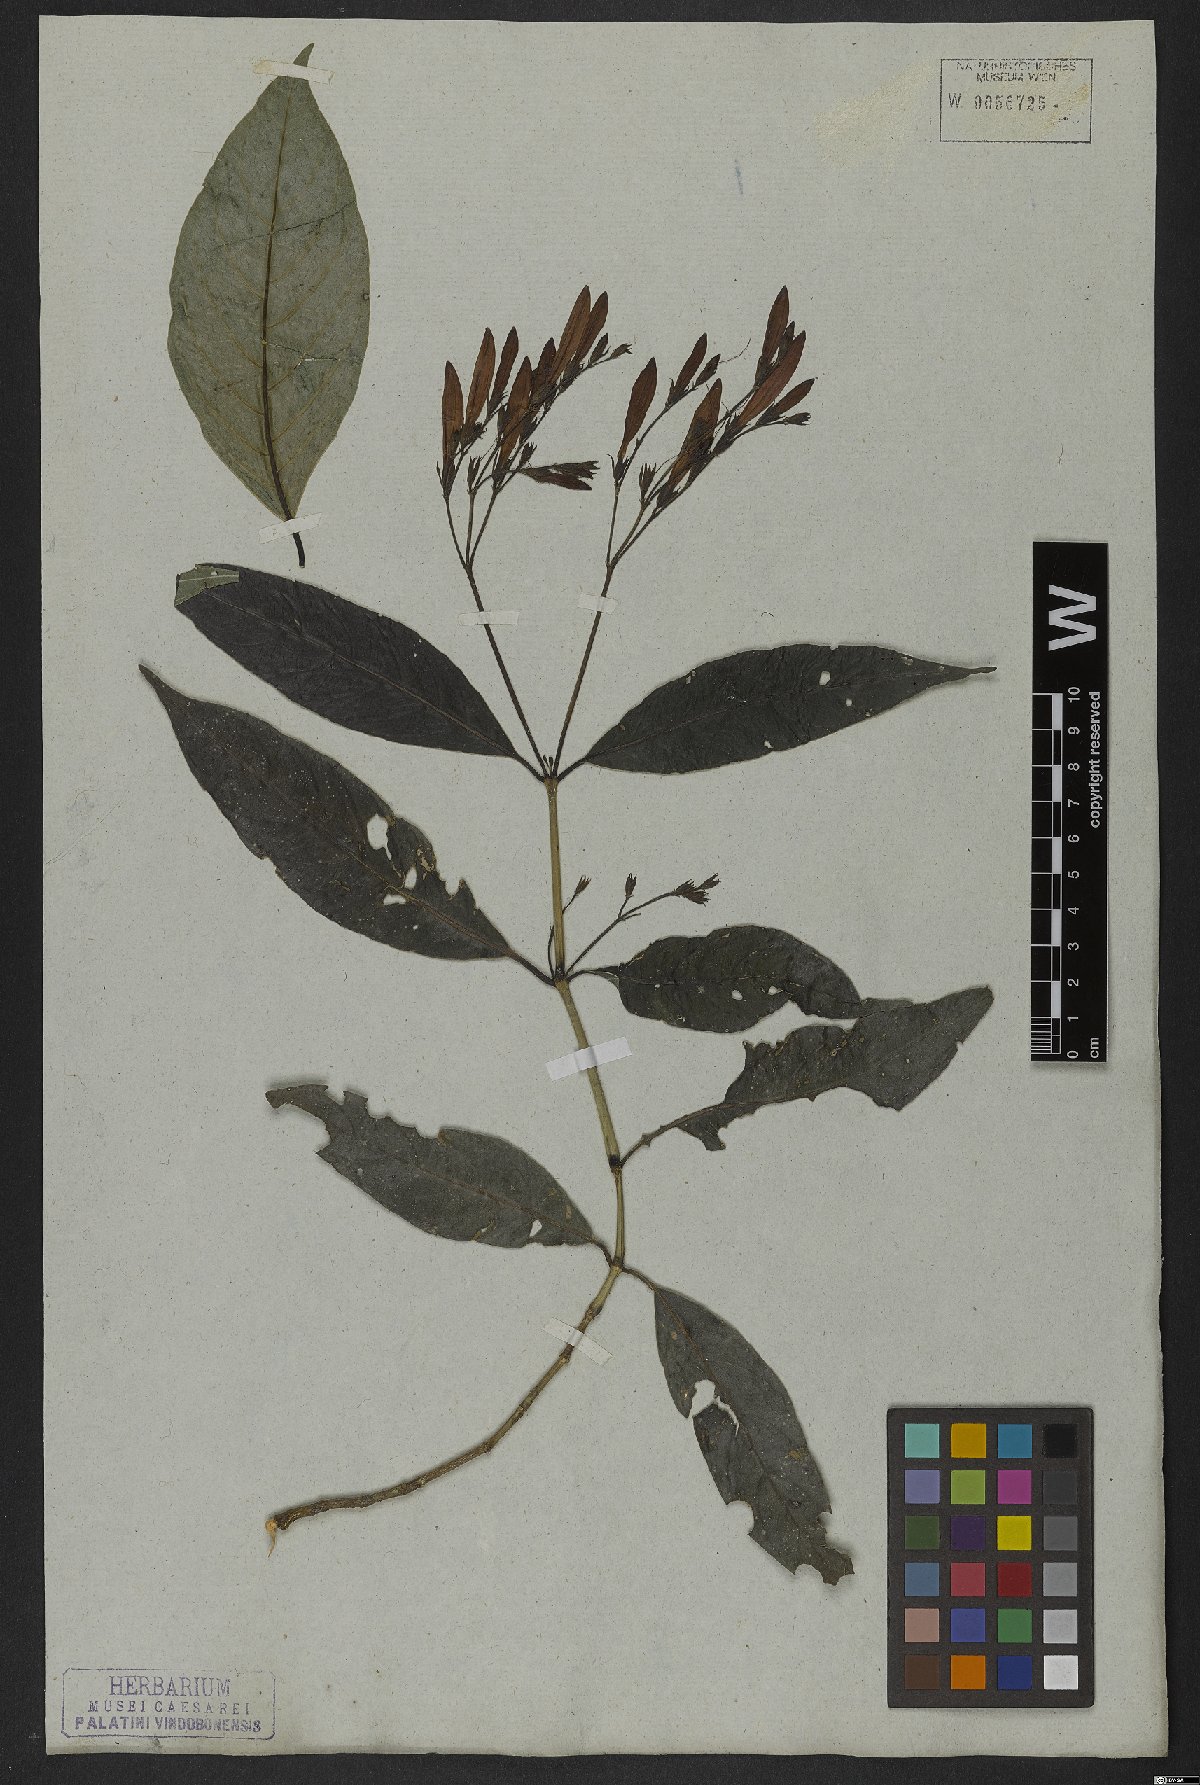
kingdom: Plantae
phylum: Tracheophyta
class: Magnoliopsida
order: Lamiales
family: Acanthaceae
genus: Justicia
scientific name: Justicia polita
